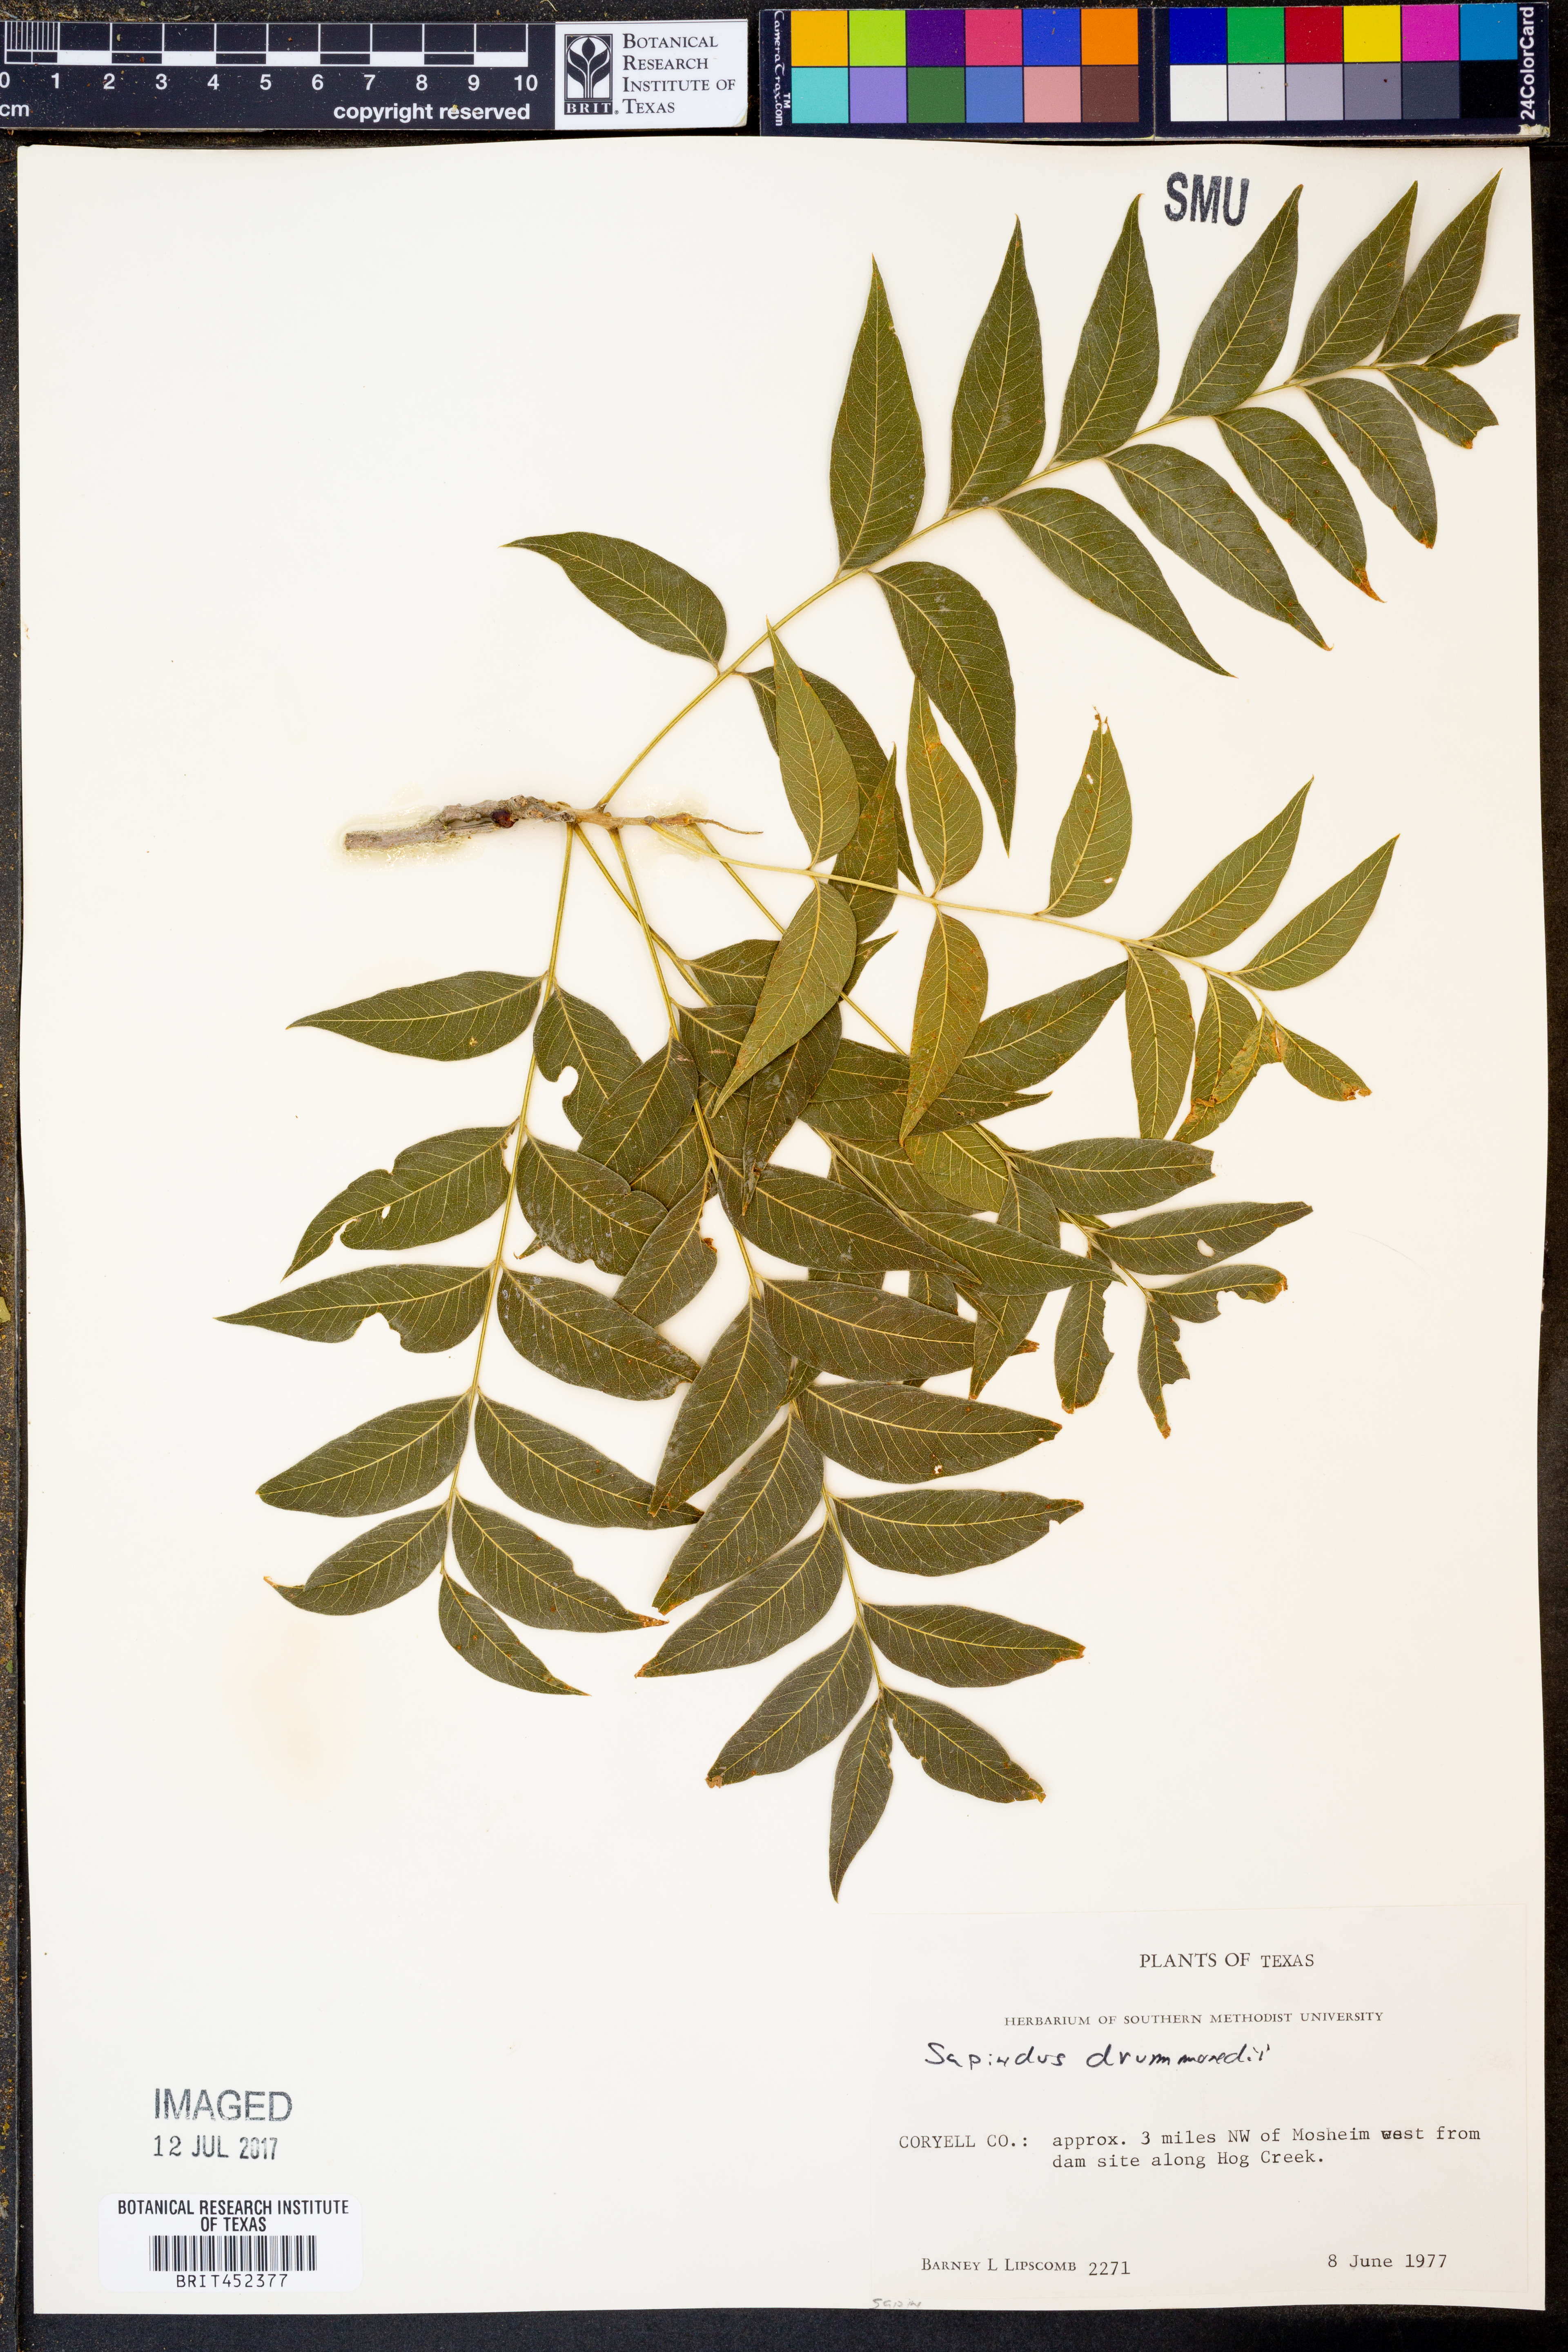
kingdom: Plantae
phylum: Tracheophyta
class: Magnoliopsida
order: Sapindales
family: Sapindaceae
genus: Sapindus
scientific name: Sapindus drummondii
